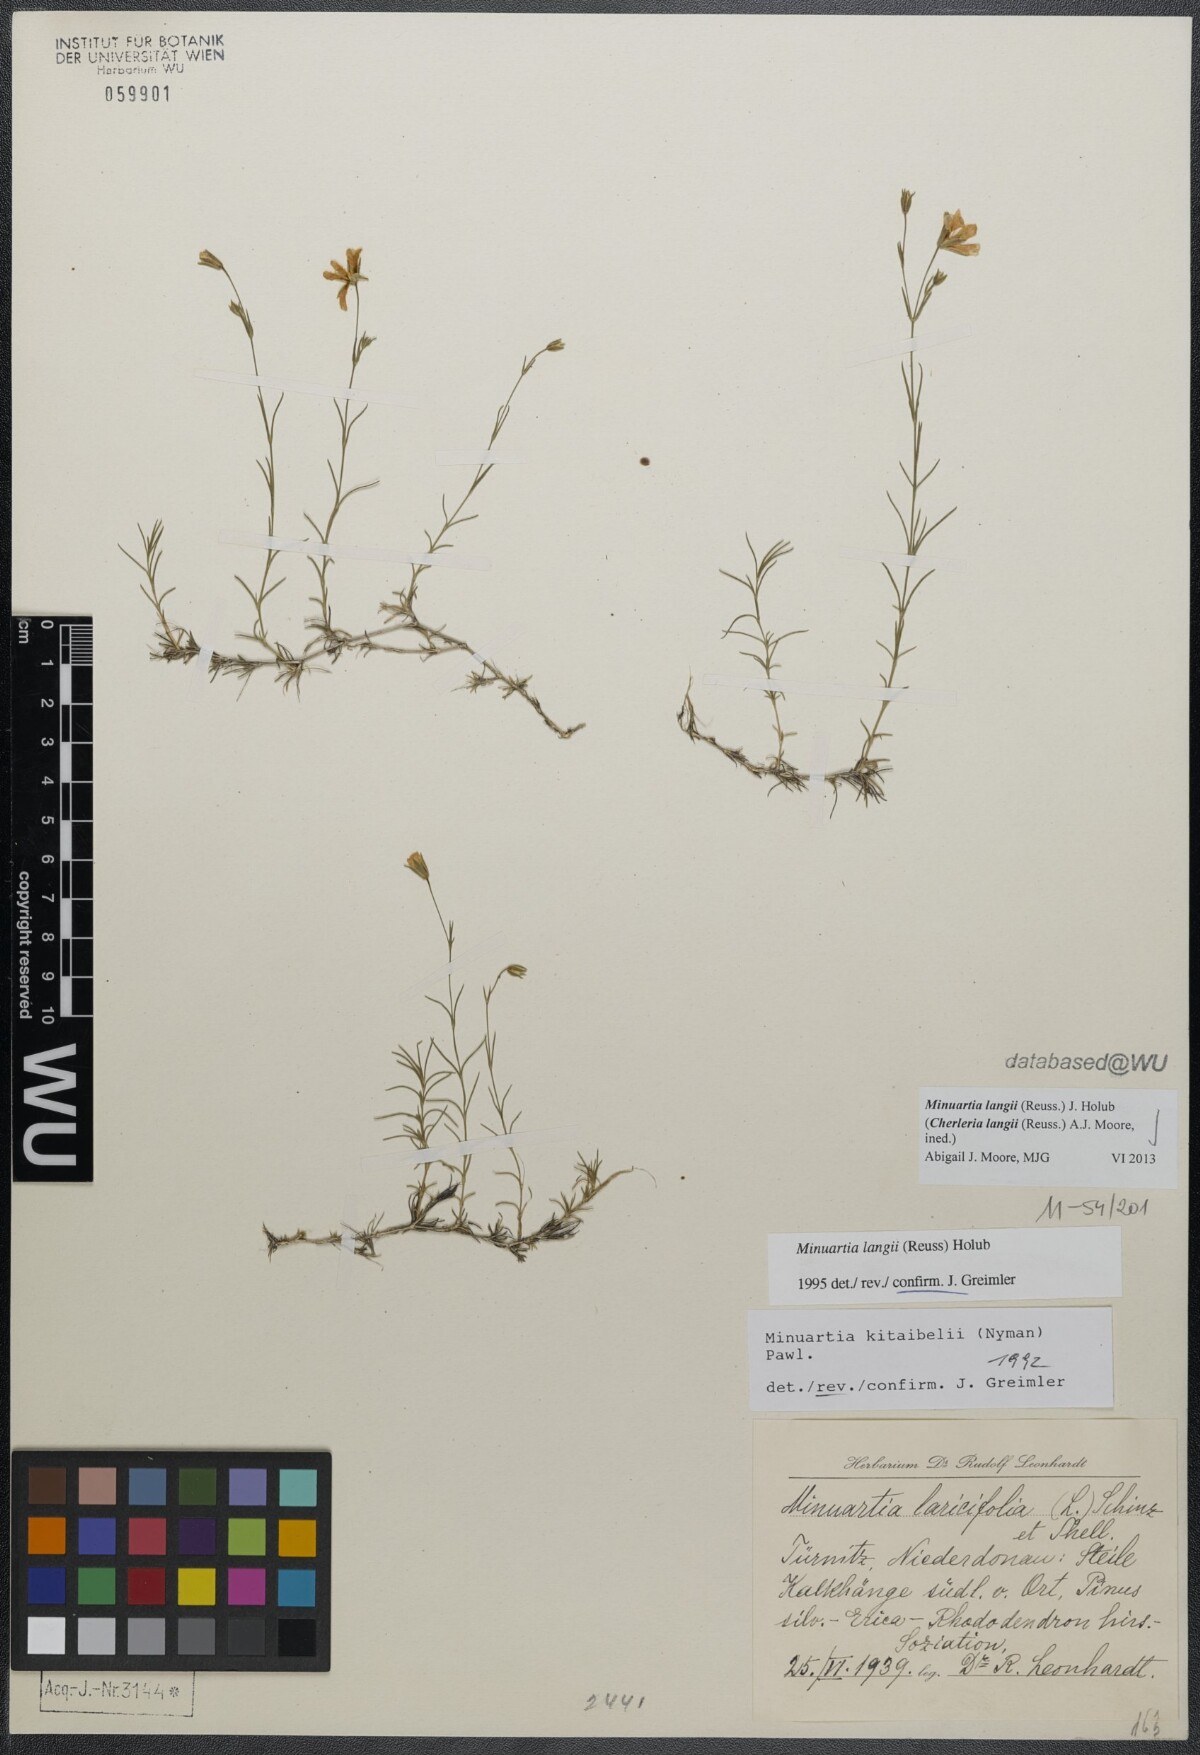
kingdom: Plantae
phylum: Tracheophyta
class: Magnoliopsida
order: Caryophyllales
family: Caryophyllaceae
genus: Cherleria
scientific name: Cherleria langii
